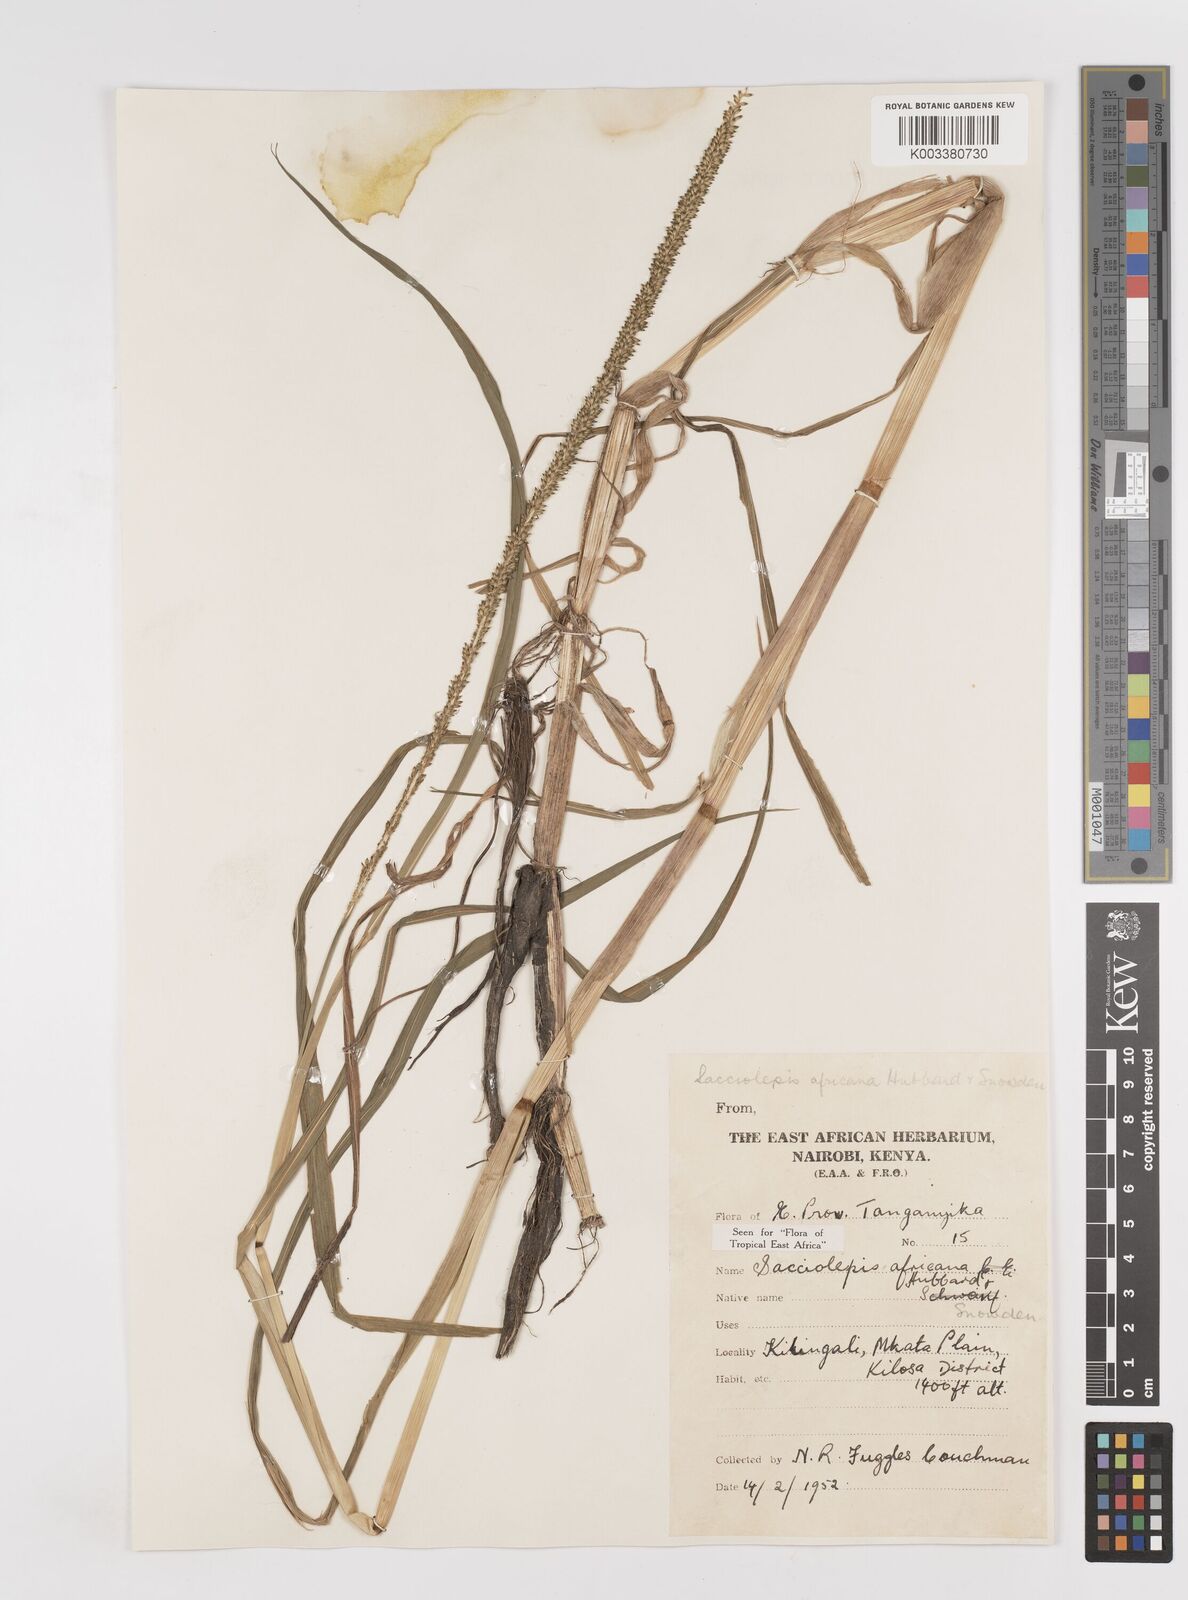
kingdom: Plantae
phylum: Tracheophyta
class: Liliopsida
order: Poales
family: Poaceae
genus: Sacciolepis
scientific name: Sacciolepis africana
